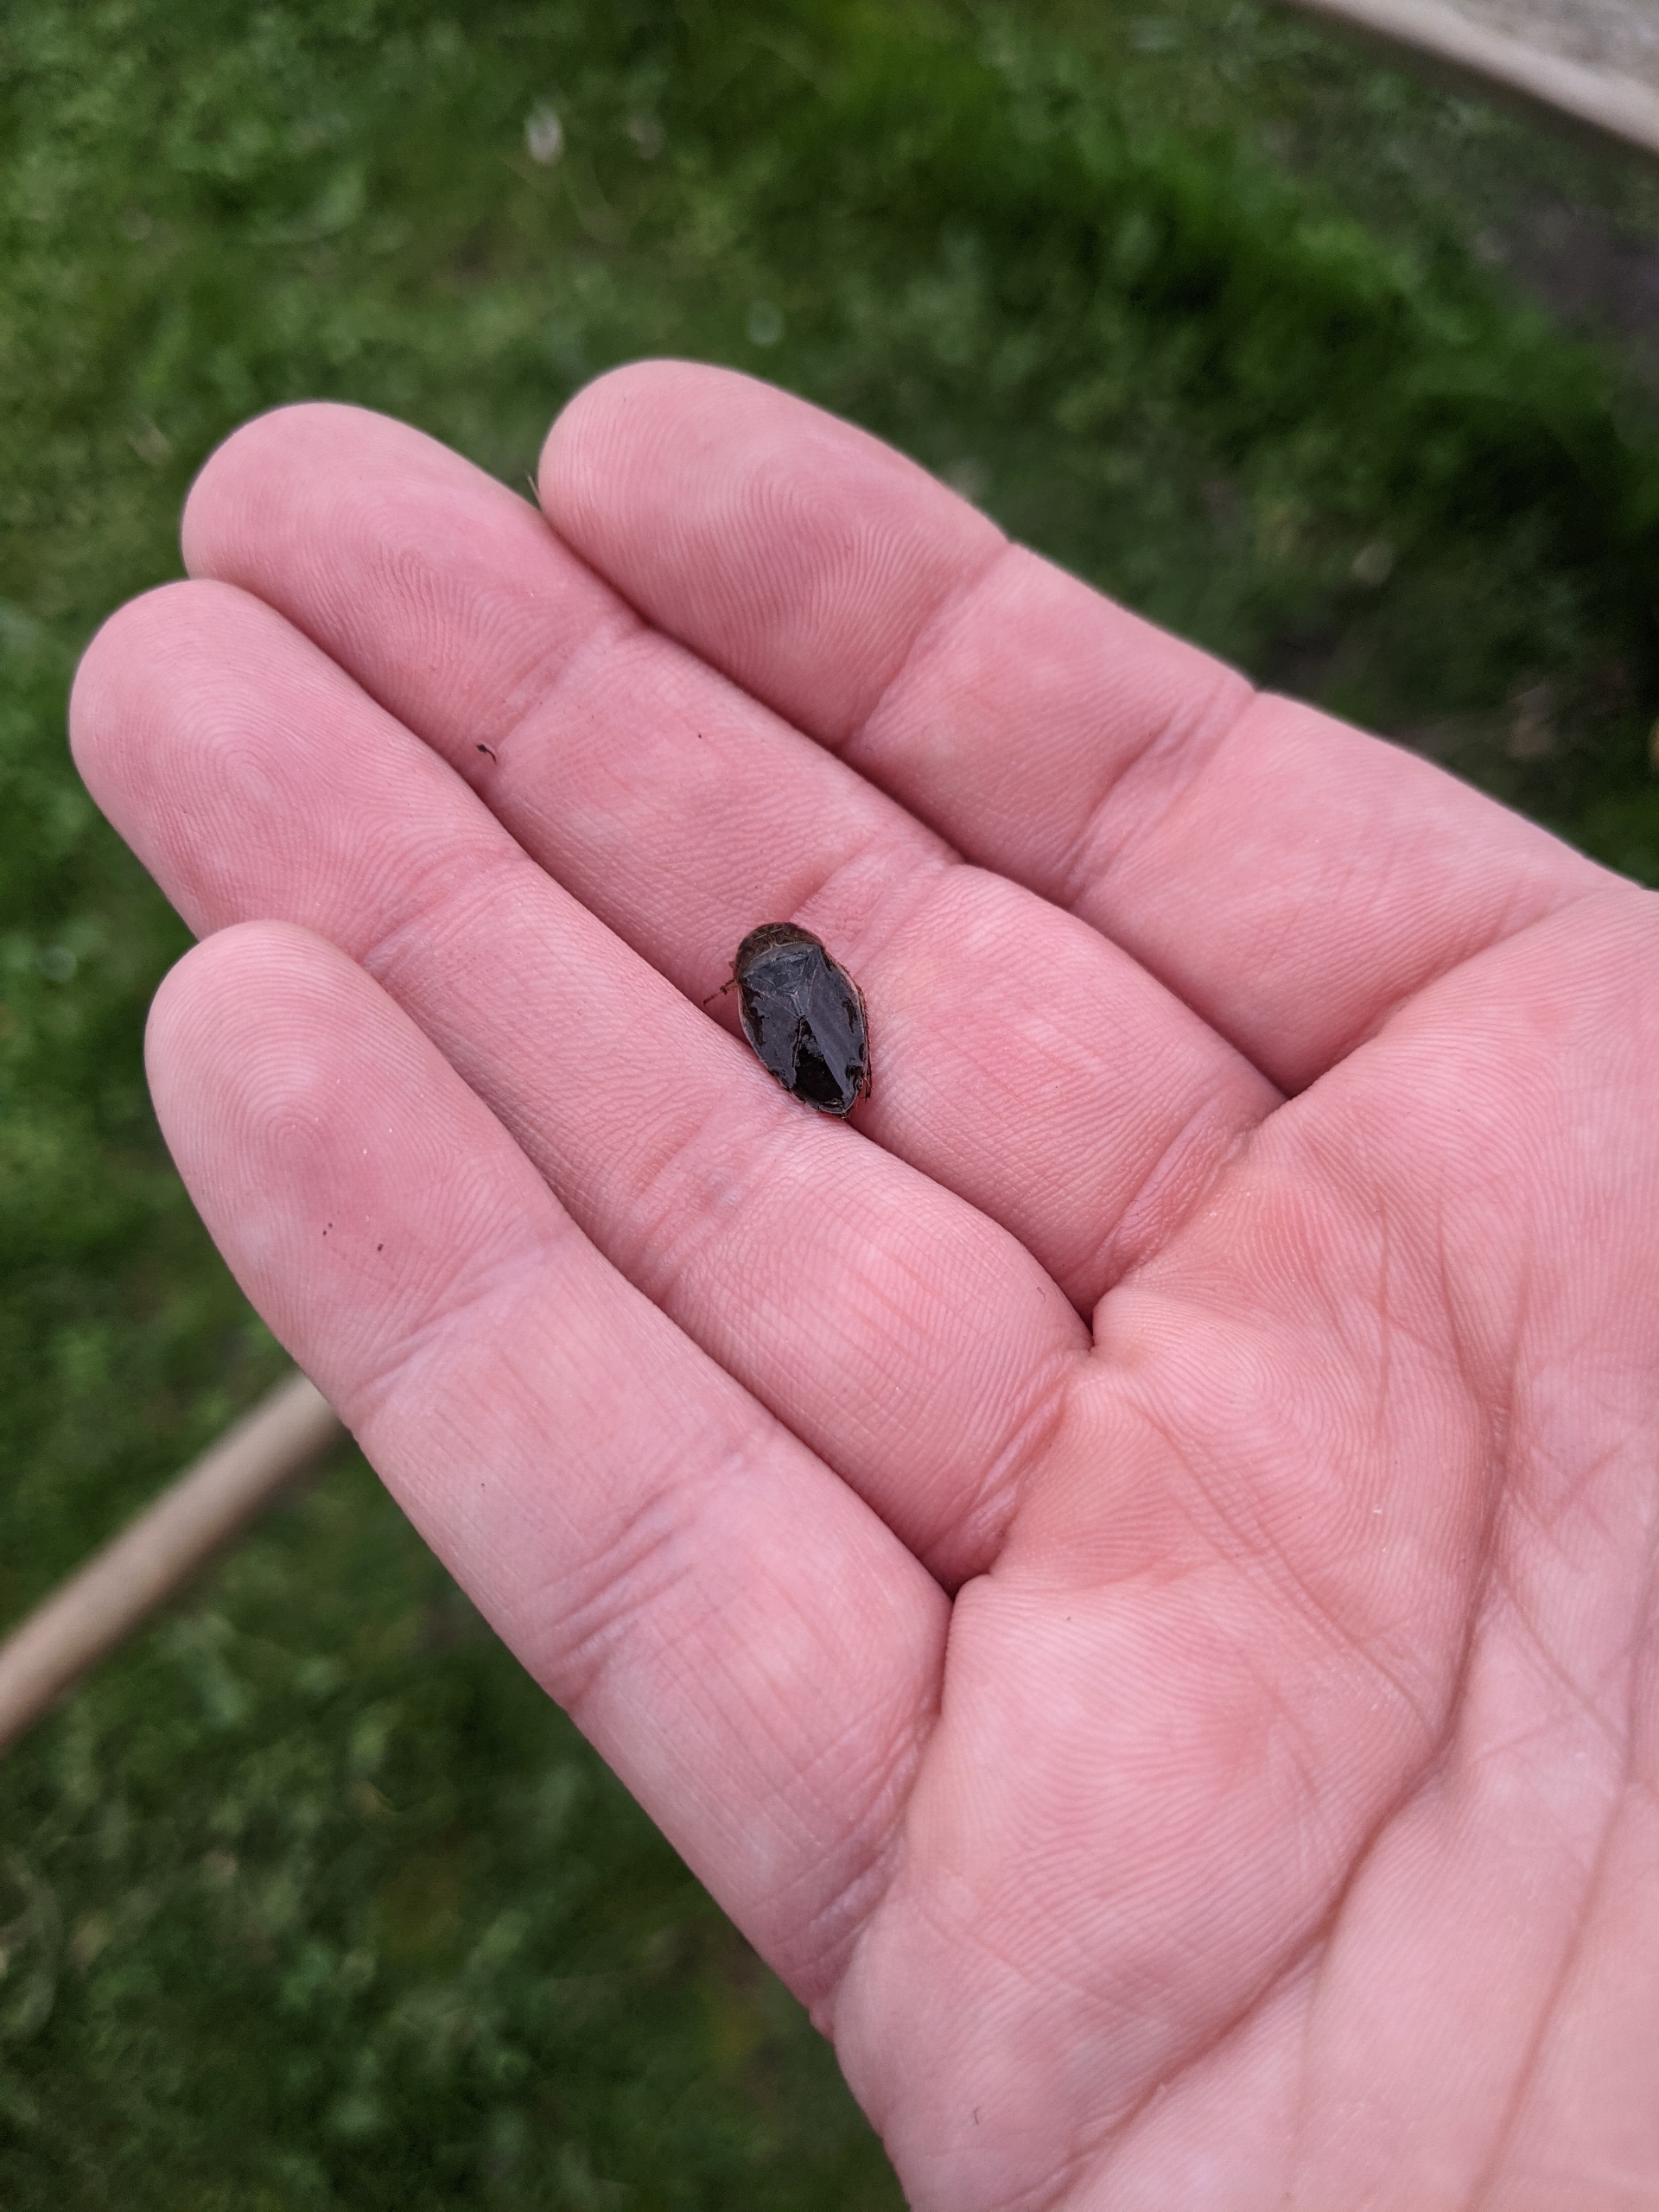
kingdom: Animalia
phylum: Arthropoda
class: Insecta
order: Hemiptera
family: Naucoridae
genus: Ilyocoris
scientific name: Ilyocoris cimicoides
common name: Vandrøver
